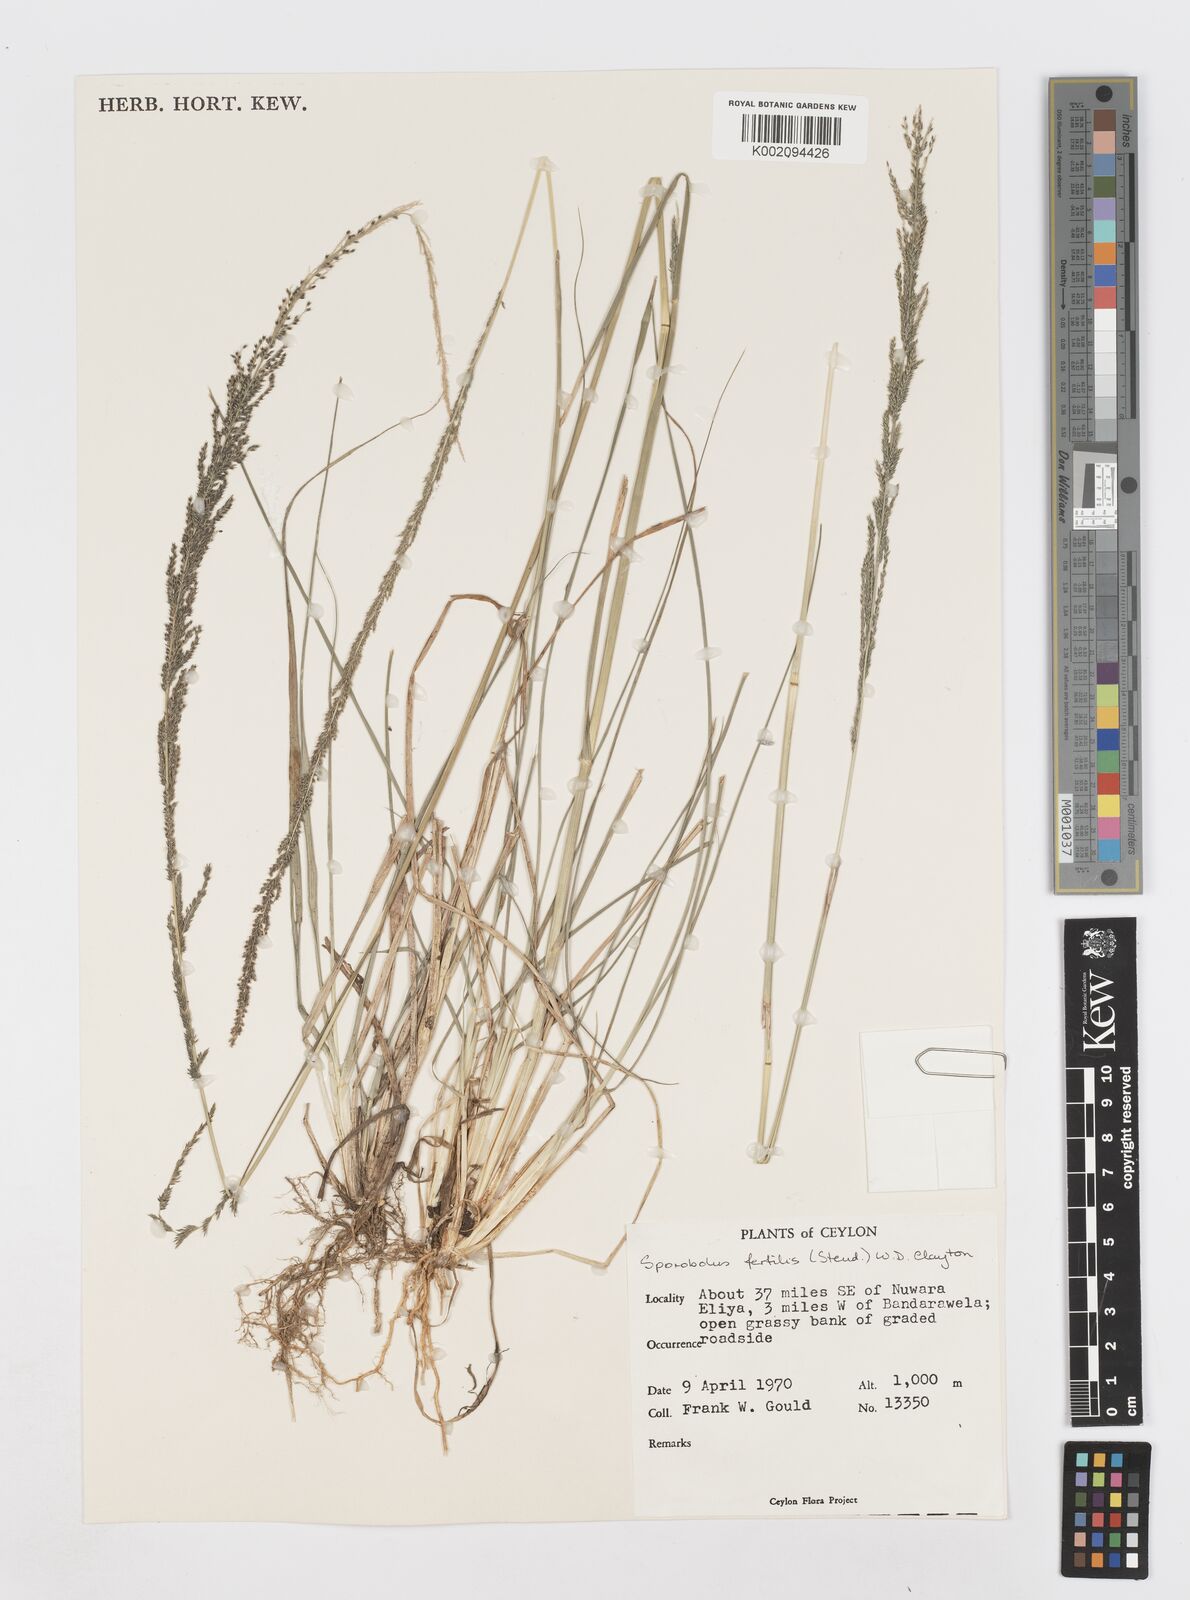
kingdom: Plantae
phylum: Tracheophyta
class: Liliopsida
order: Poales
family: Poaceae
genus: Sporobolus
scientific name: Sporobolus fertilis
